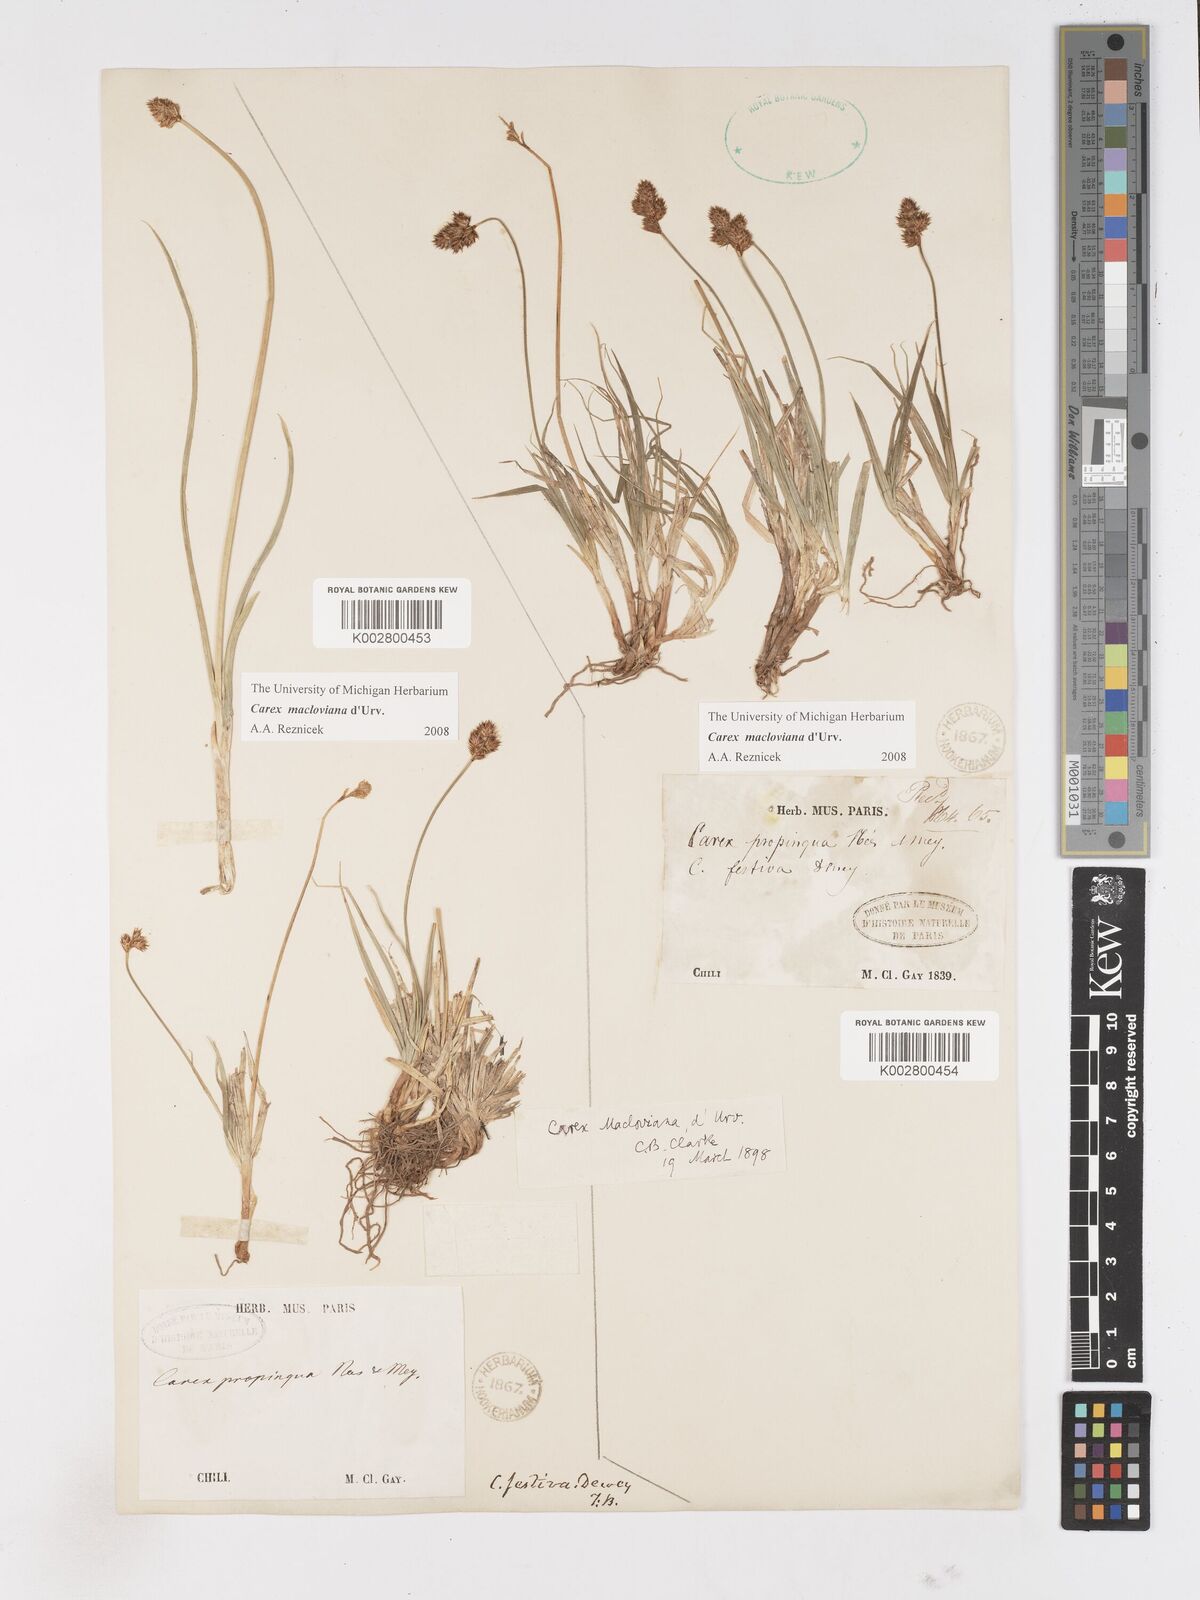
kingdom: Plantae
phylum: Tracheophyta
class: Liliopsida
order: Poales
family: Cyperaceae
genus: Carex
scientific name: Carex macloviana
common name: Falkland island sedge
